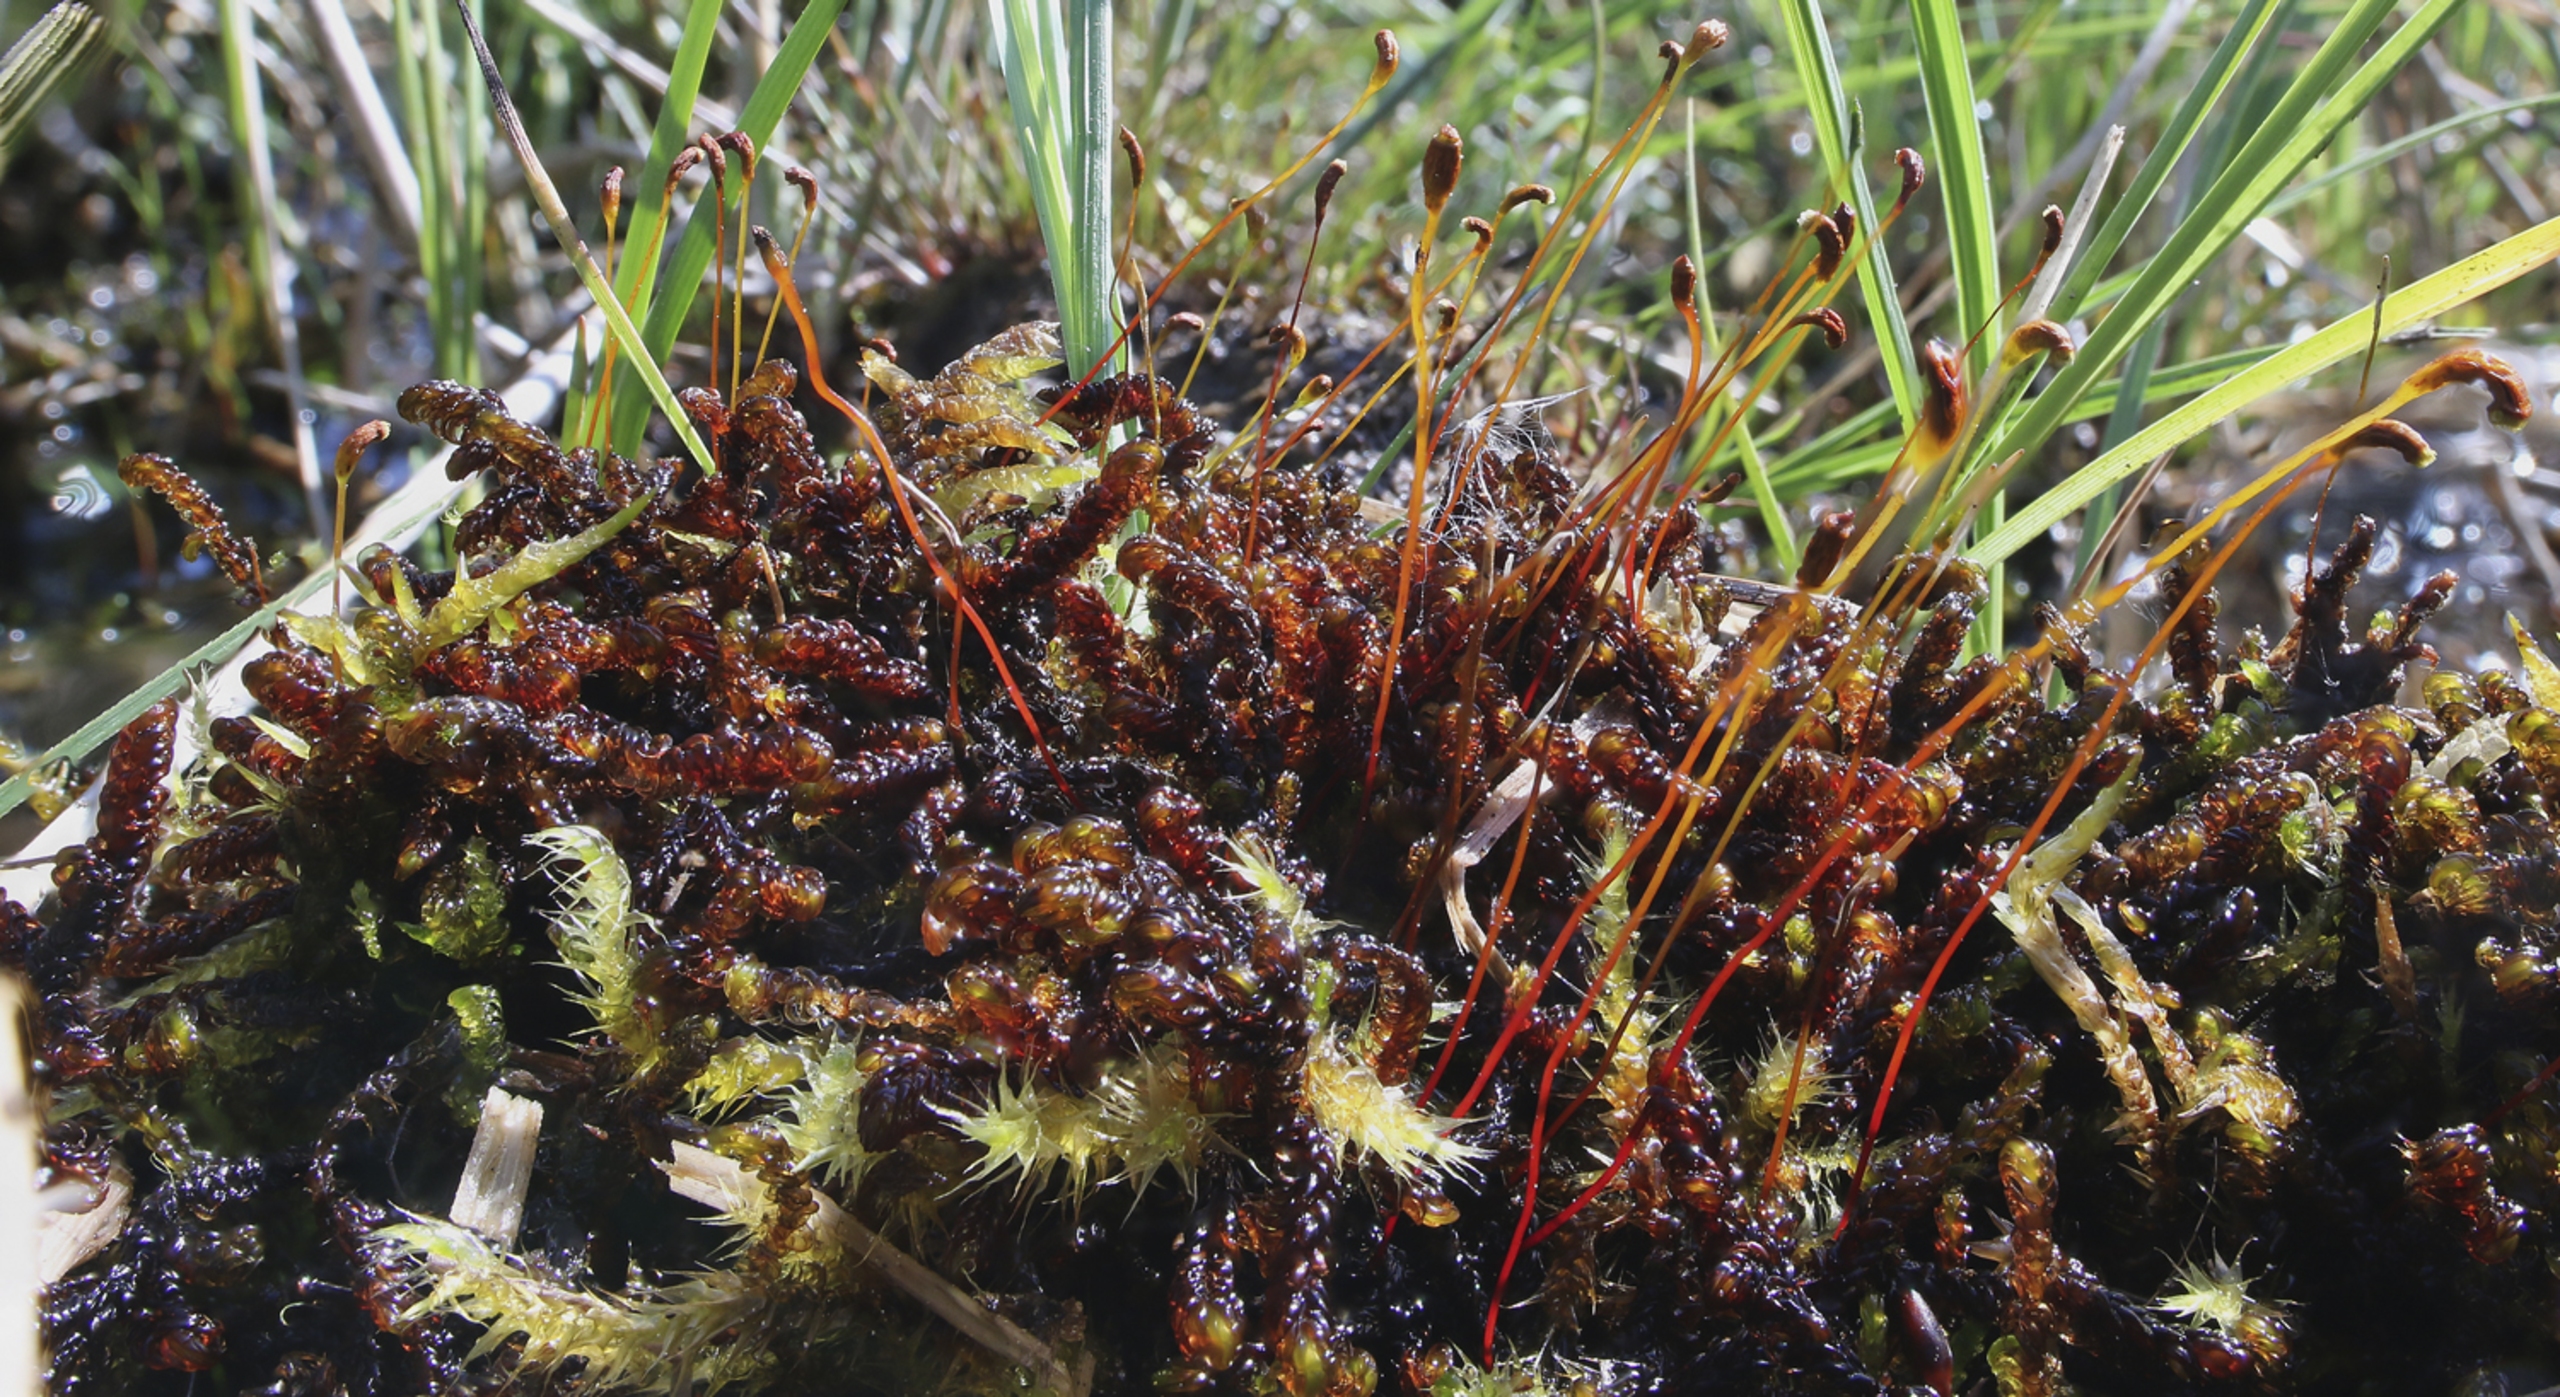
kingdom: Plantae
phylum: Bryophyta
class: Bryopsida
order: Hypnales
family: Scorpidiaceae
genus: Scorpidium
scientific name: Scorpidium revolvens
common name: Rød krumblad
